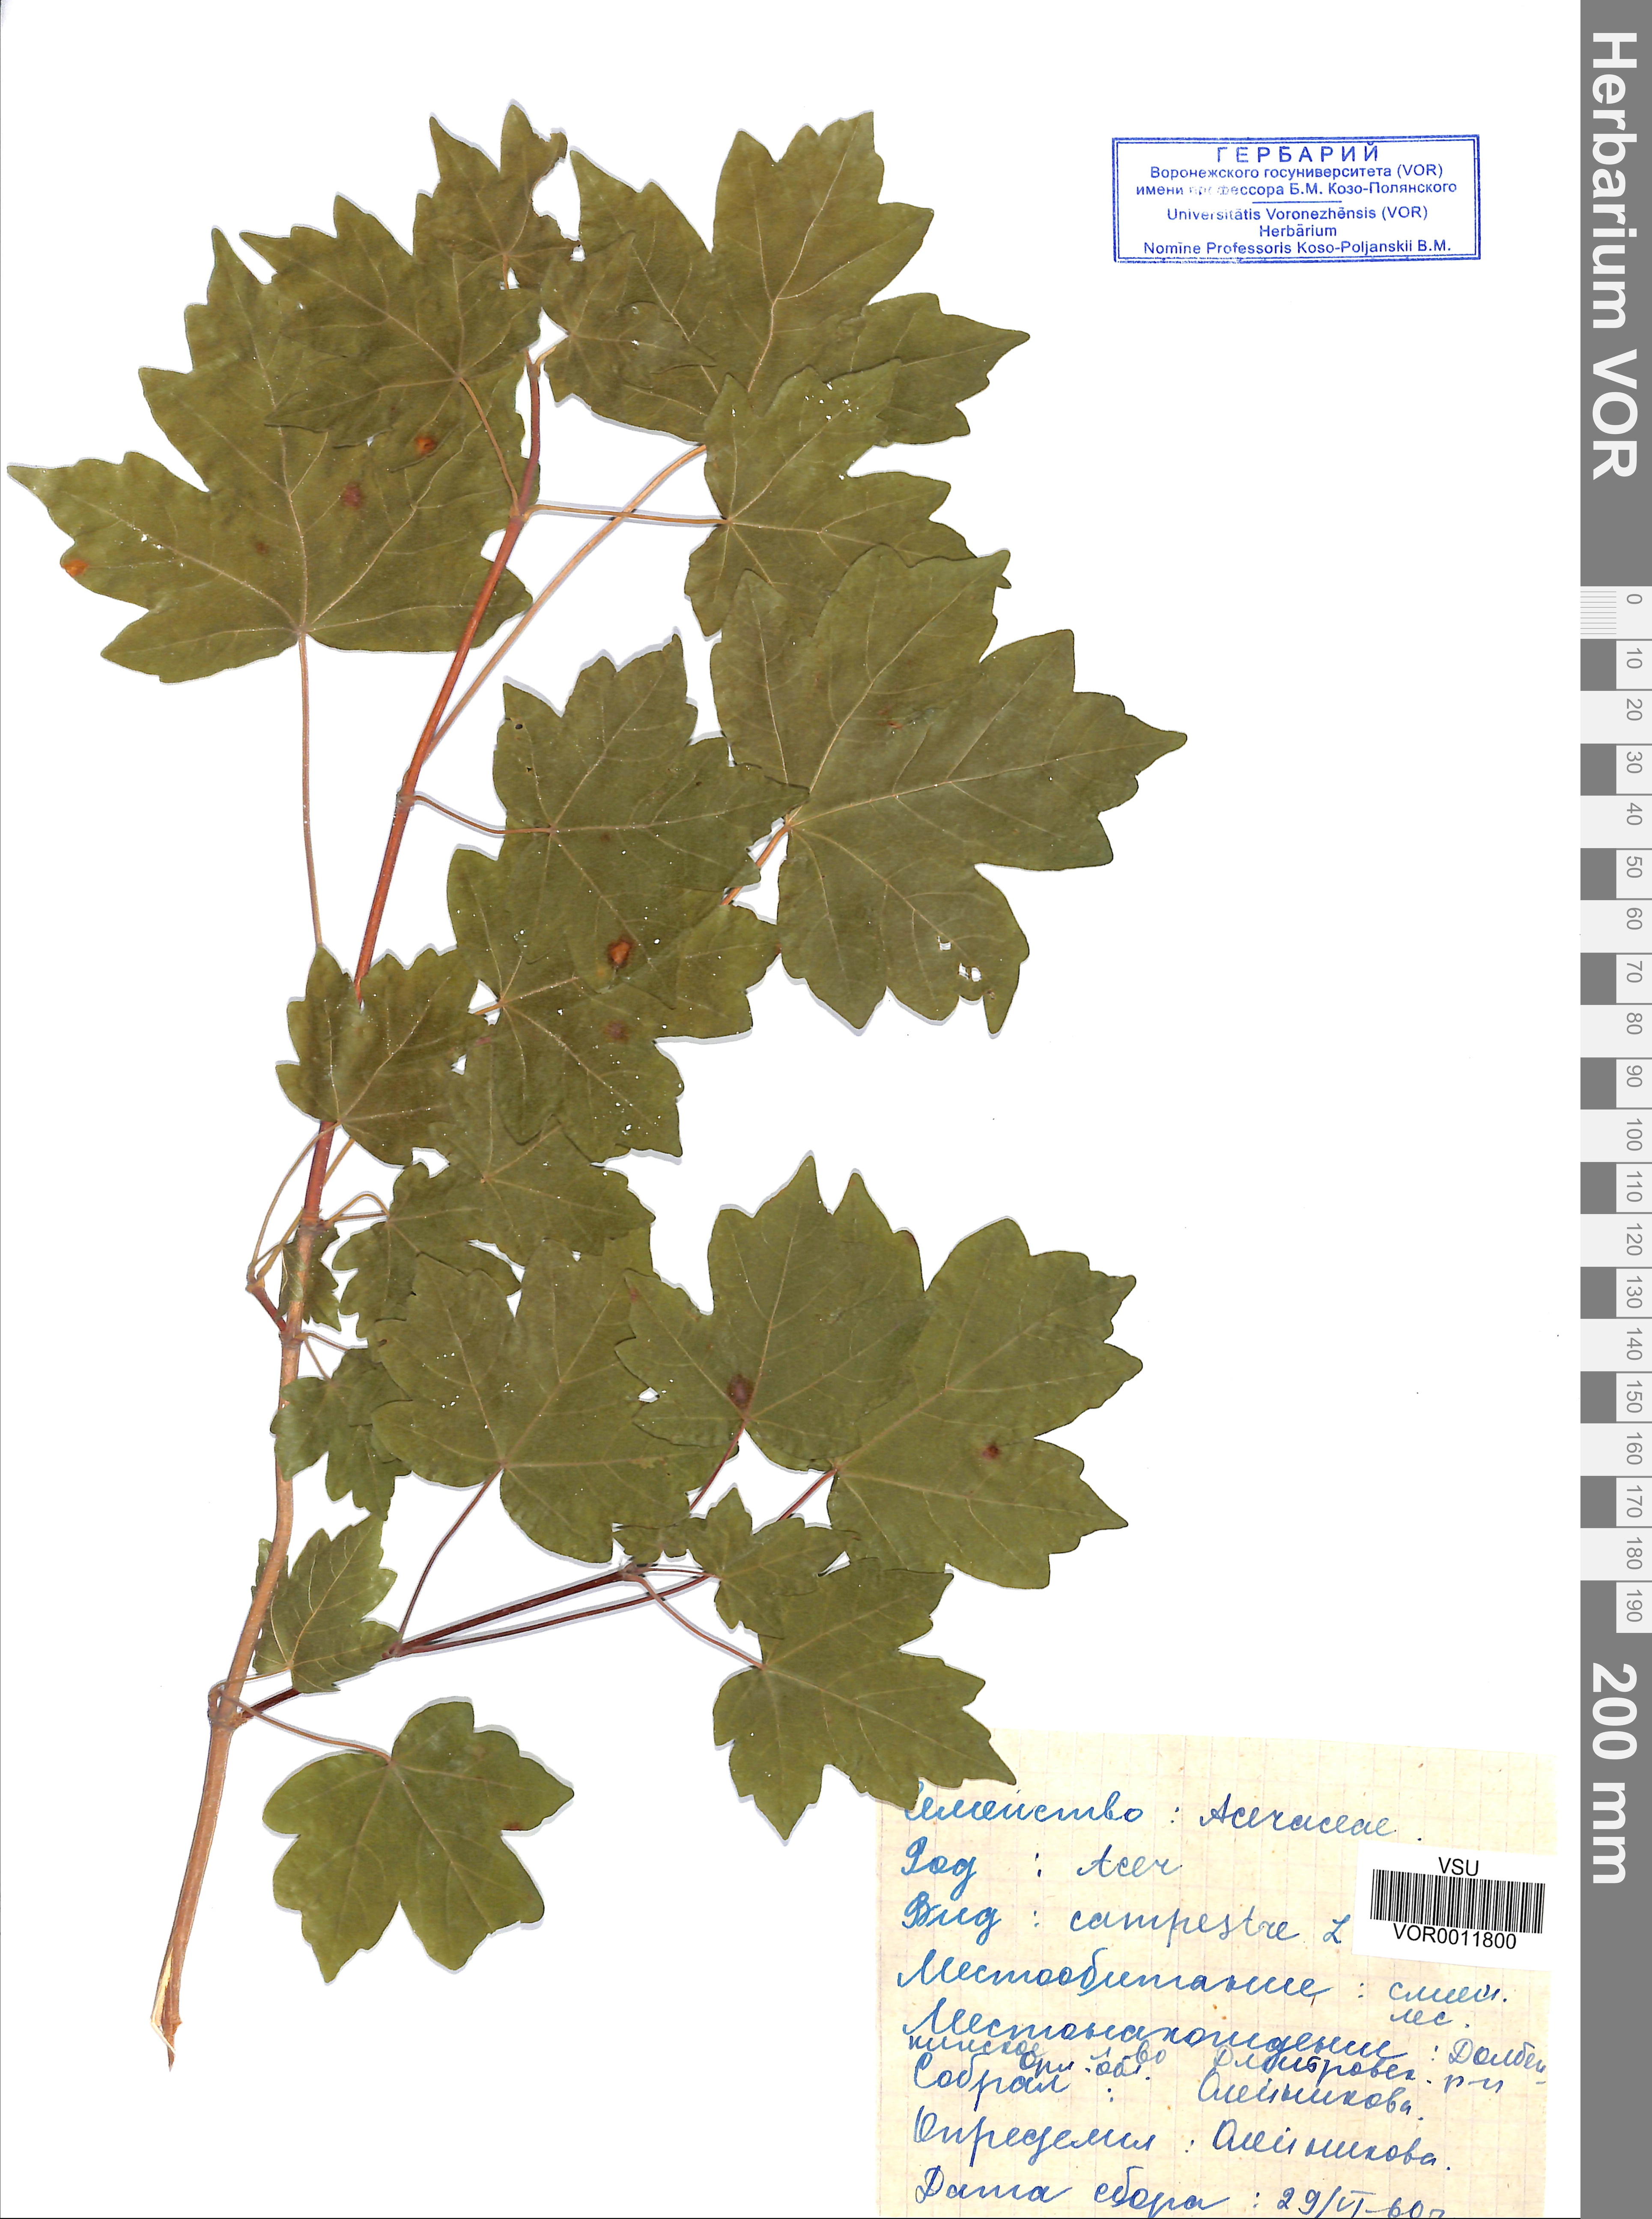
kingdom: Plantae
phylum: Tracheophyta
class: Magnoliopsida
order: Sapindales
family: Sapindaceae
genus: Acer
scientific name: Acer campestre
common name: Field maple
